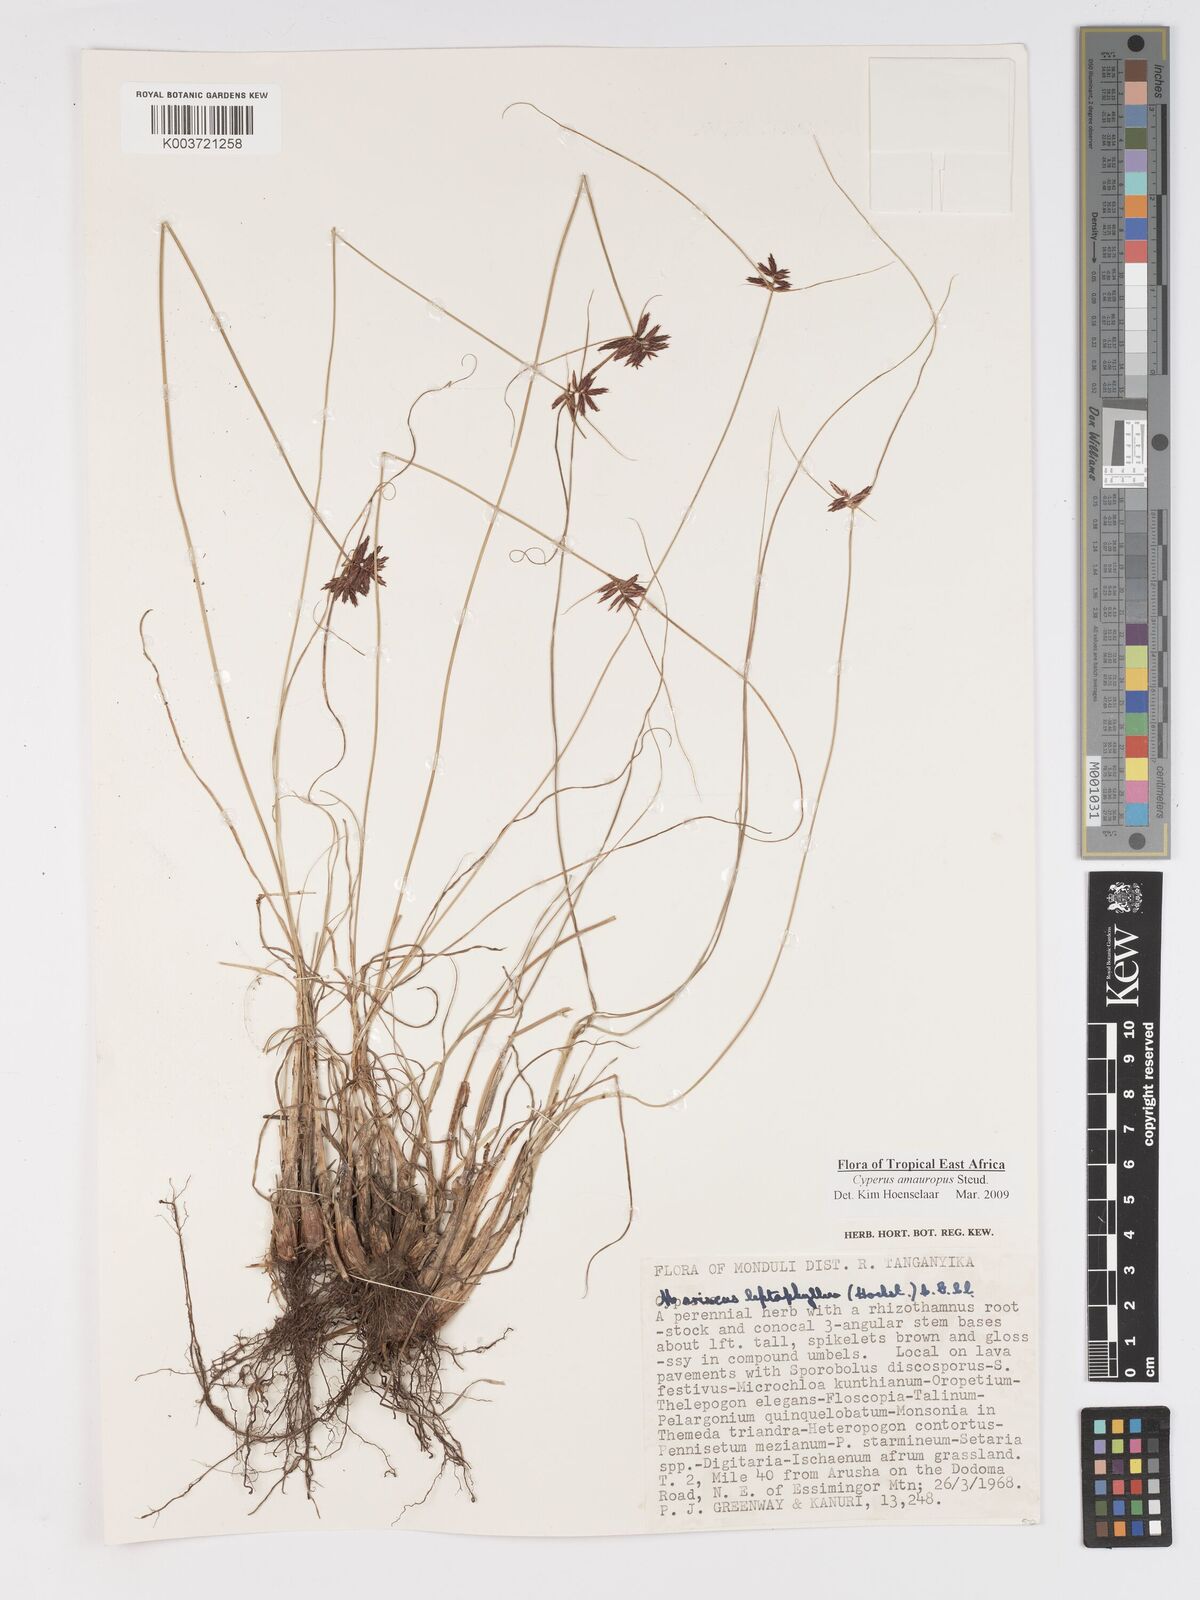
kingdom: Plantae
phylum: Tracheophyta
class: Liliopsida
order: Poales
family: Cyperaceae
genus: Cyperus
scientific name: Cyperus amauropus
